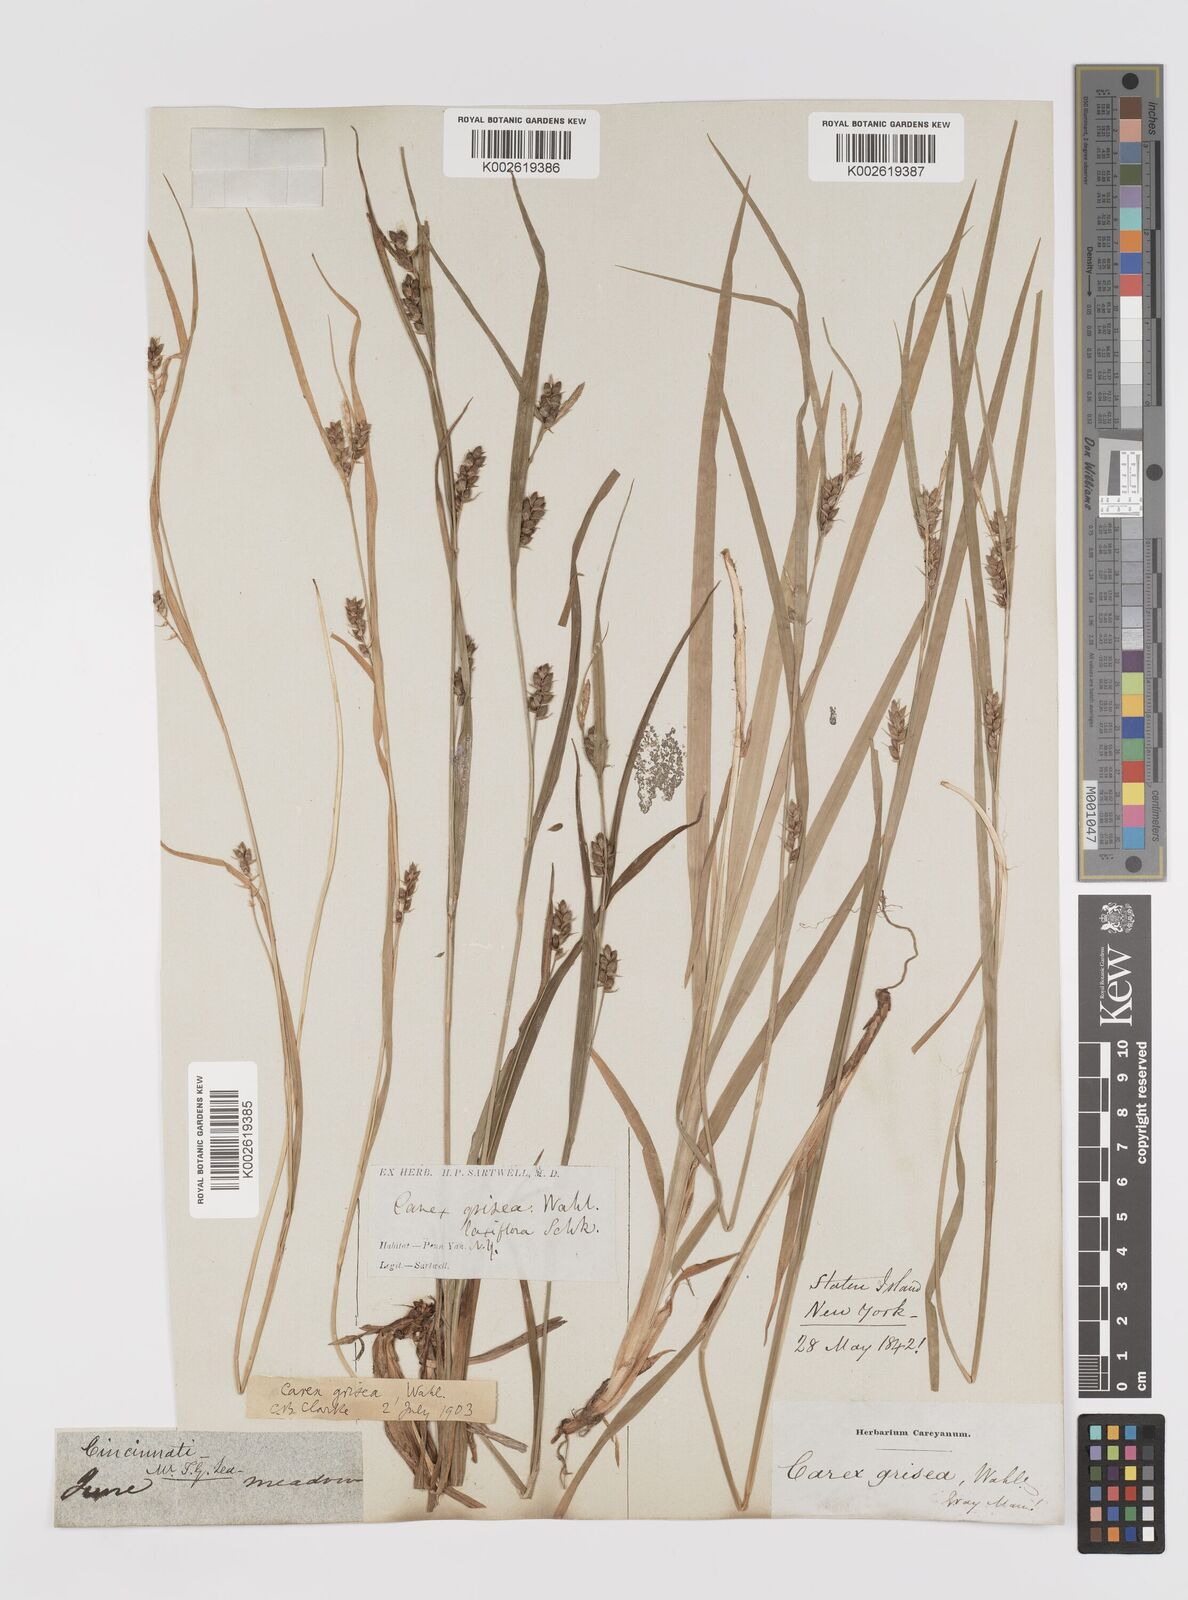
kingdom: Plantae
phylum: Tracheophyta
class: Liliopsida
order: Poales
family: Cyperaceae
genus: Carex
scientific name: Carex grisea
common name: Eastern narrow-leaved sedge
